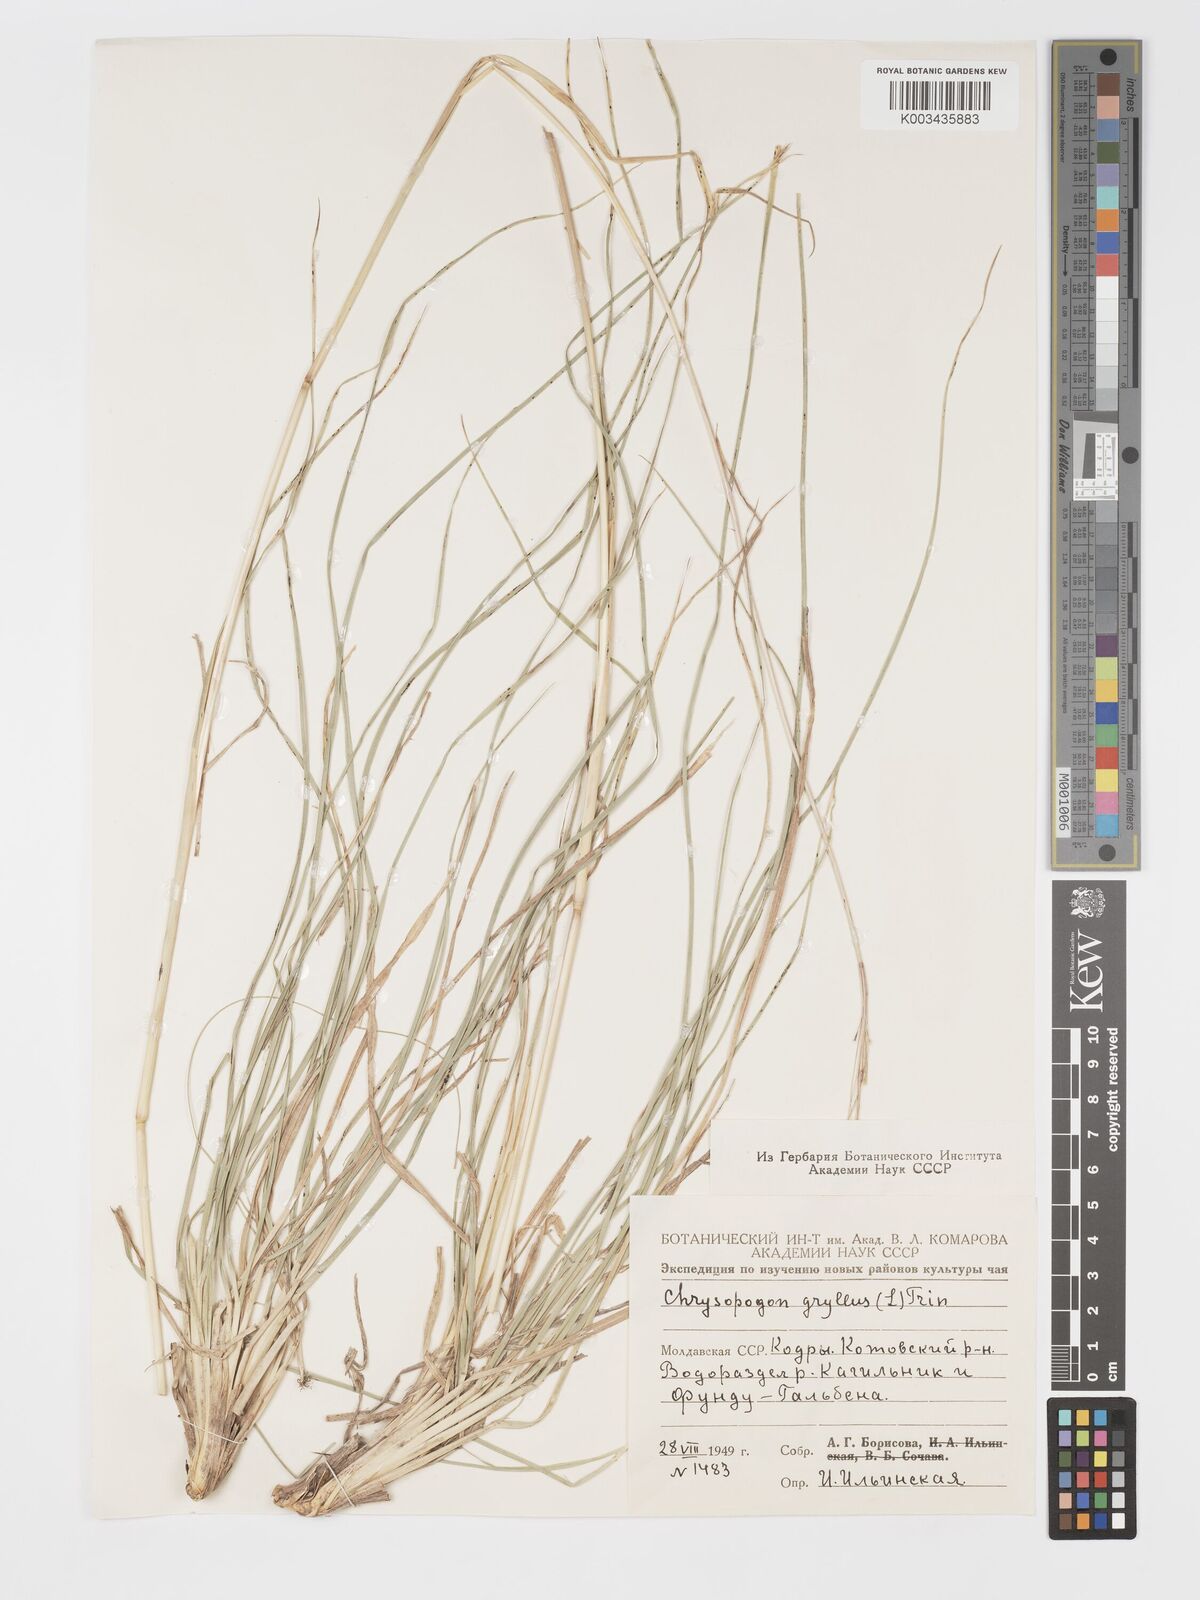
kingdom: Plantae
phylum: Tracheophyta
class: Liliopsida
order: Poales
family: Poaceae
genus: Chrysopogon
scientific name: Chrysopogon gryllus
